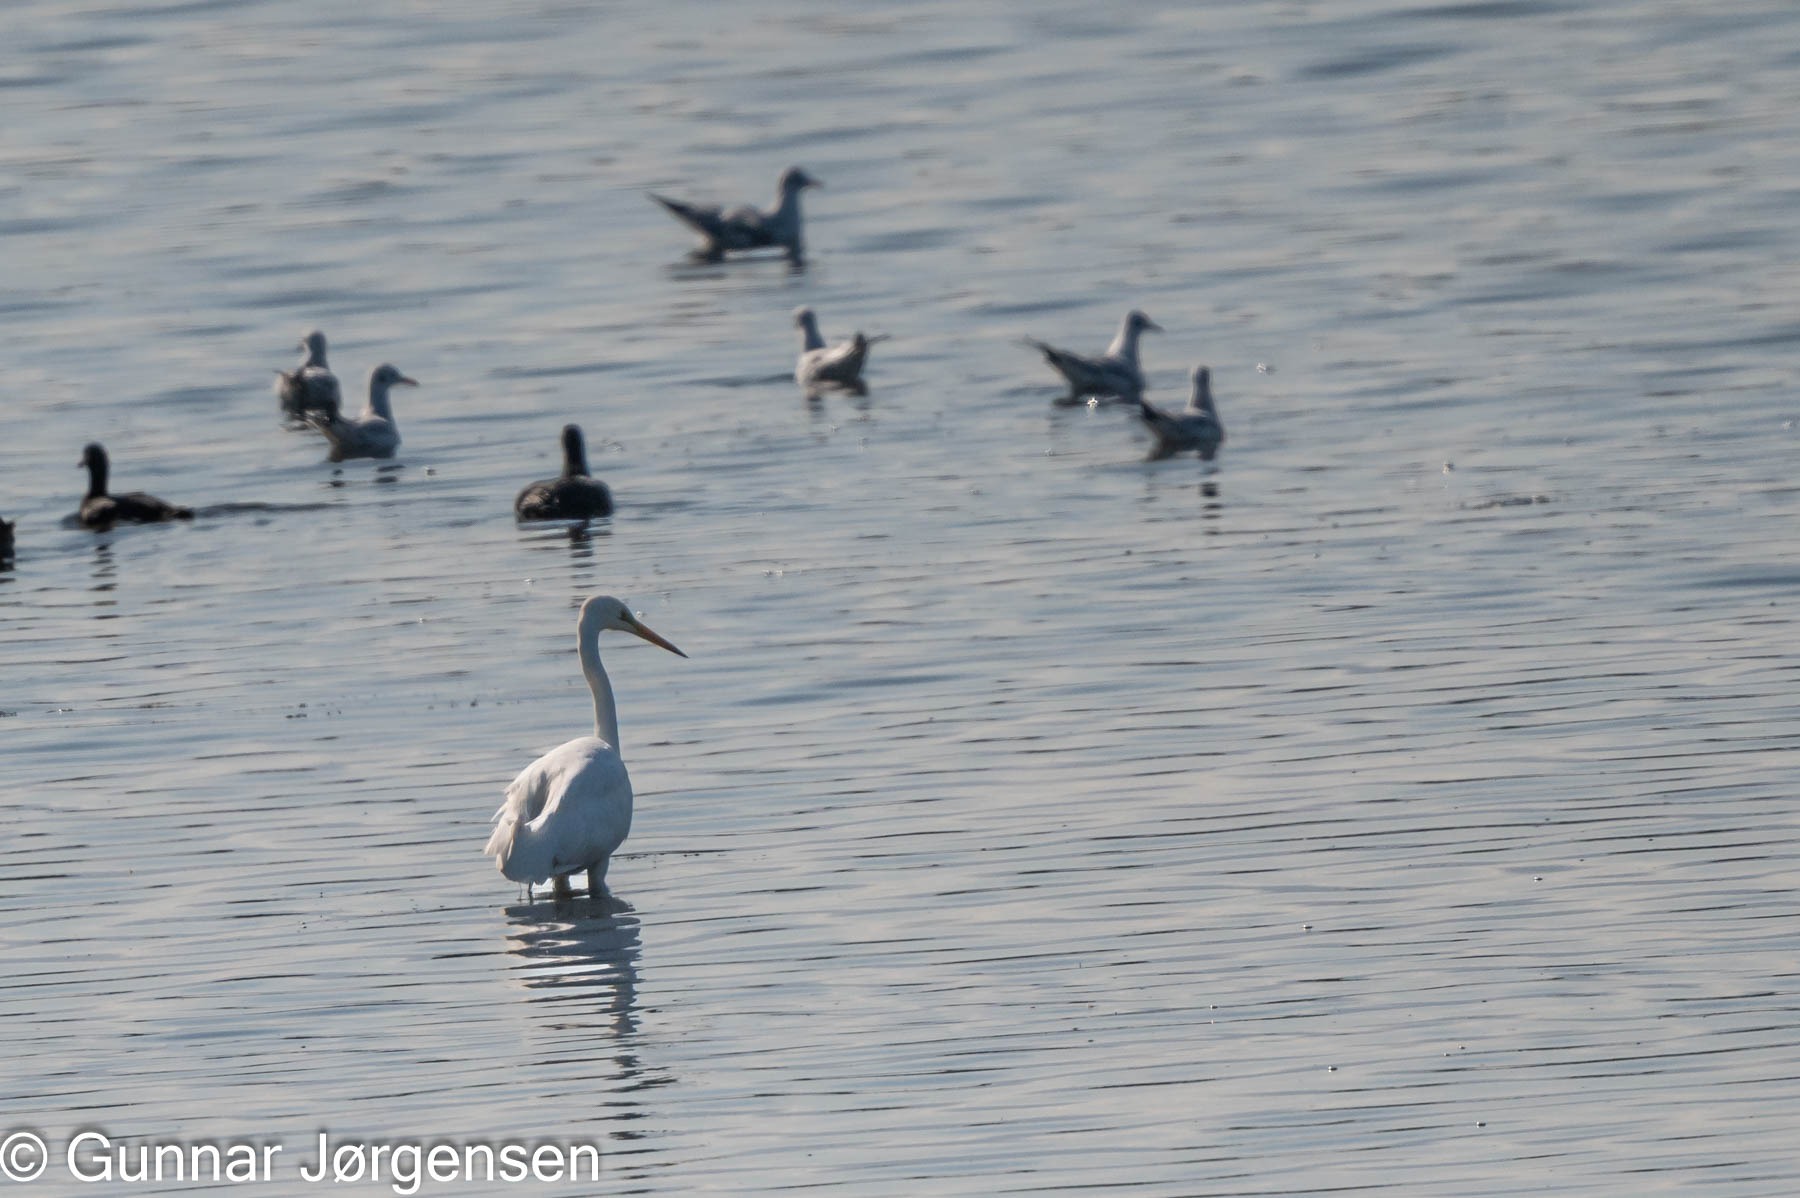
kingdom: Animalia
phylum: Chordata
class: Aves
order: Pelecaniformes
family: Ardeidae
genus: Ardea
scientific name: Ardea alba
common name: Sølvhejre
